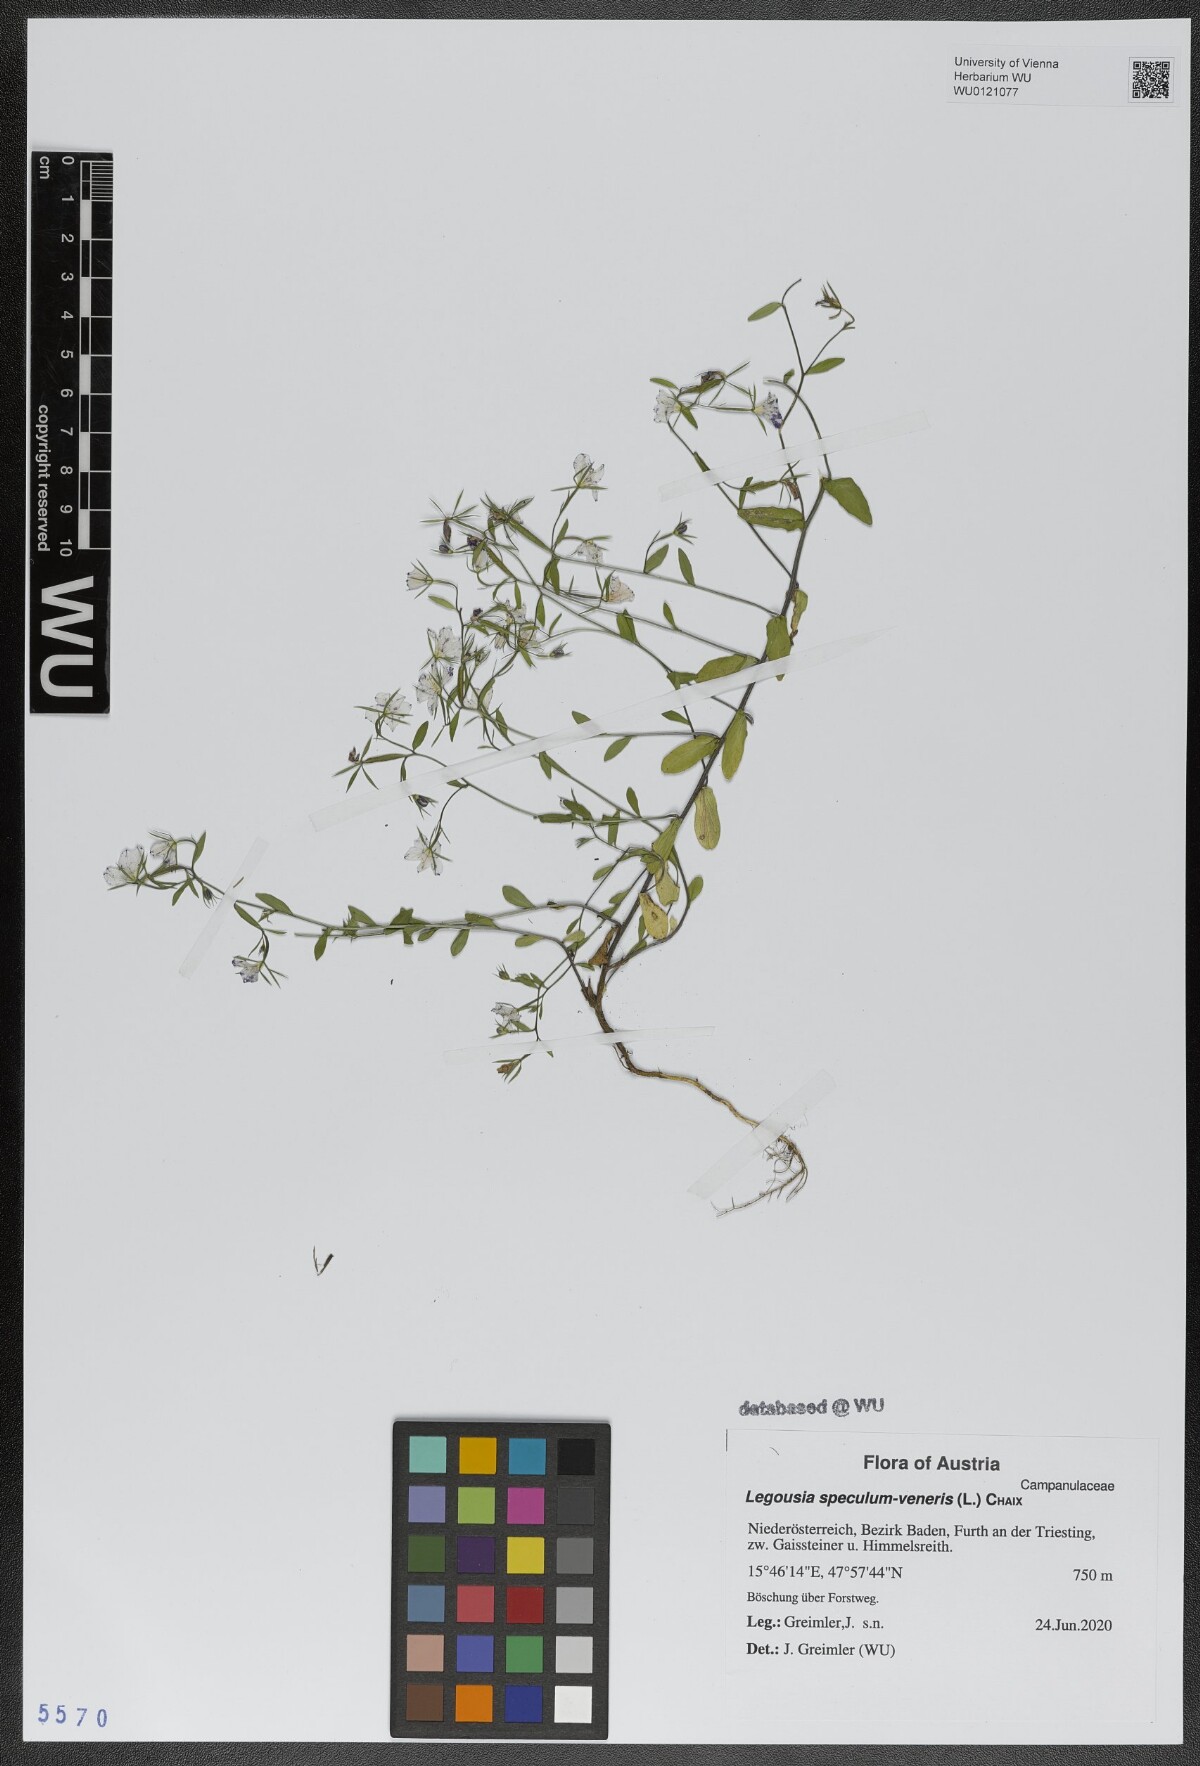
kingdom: Plantae
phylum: Tracheophyta
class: Magnoliopsida
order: Asterales
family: Campanulaceae
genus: Legousia
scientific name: Legousia speculum-veneris
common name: Large venus's-looking-glass
